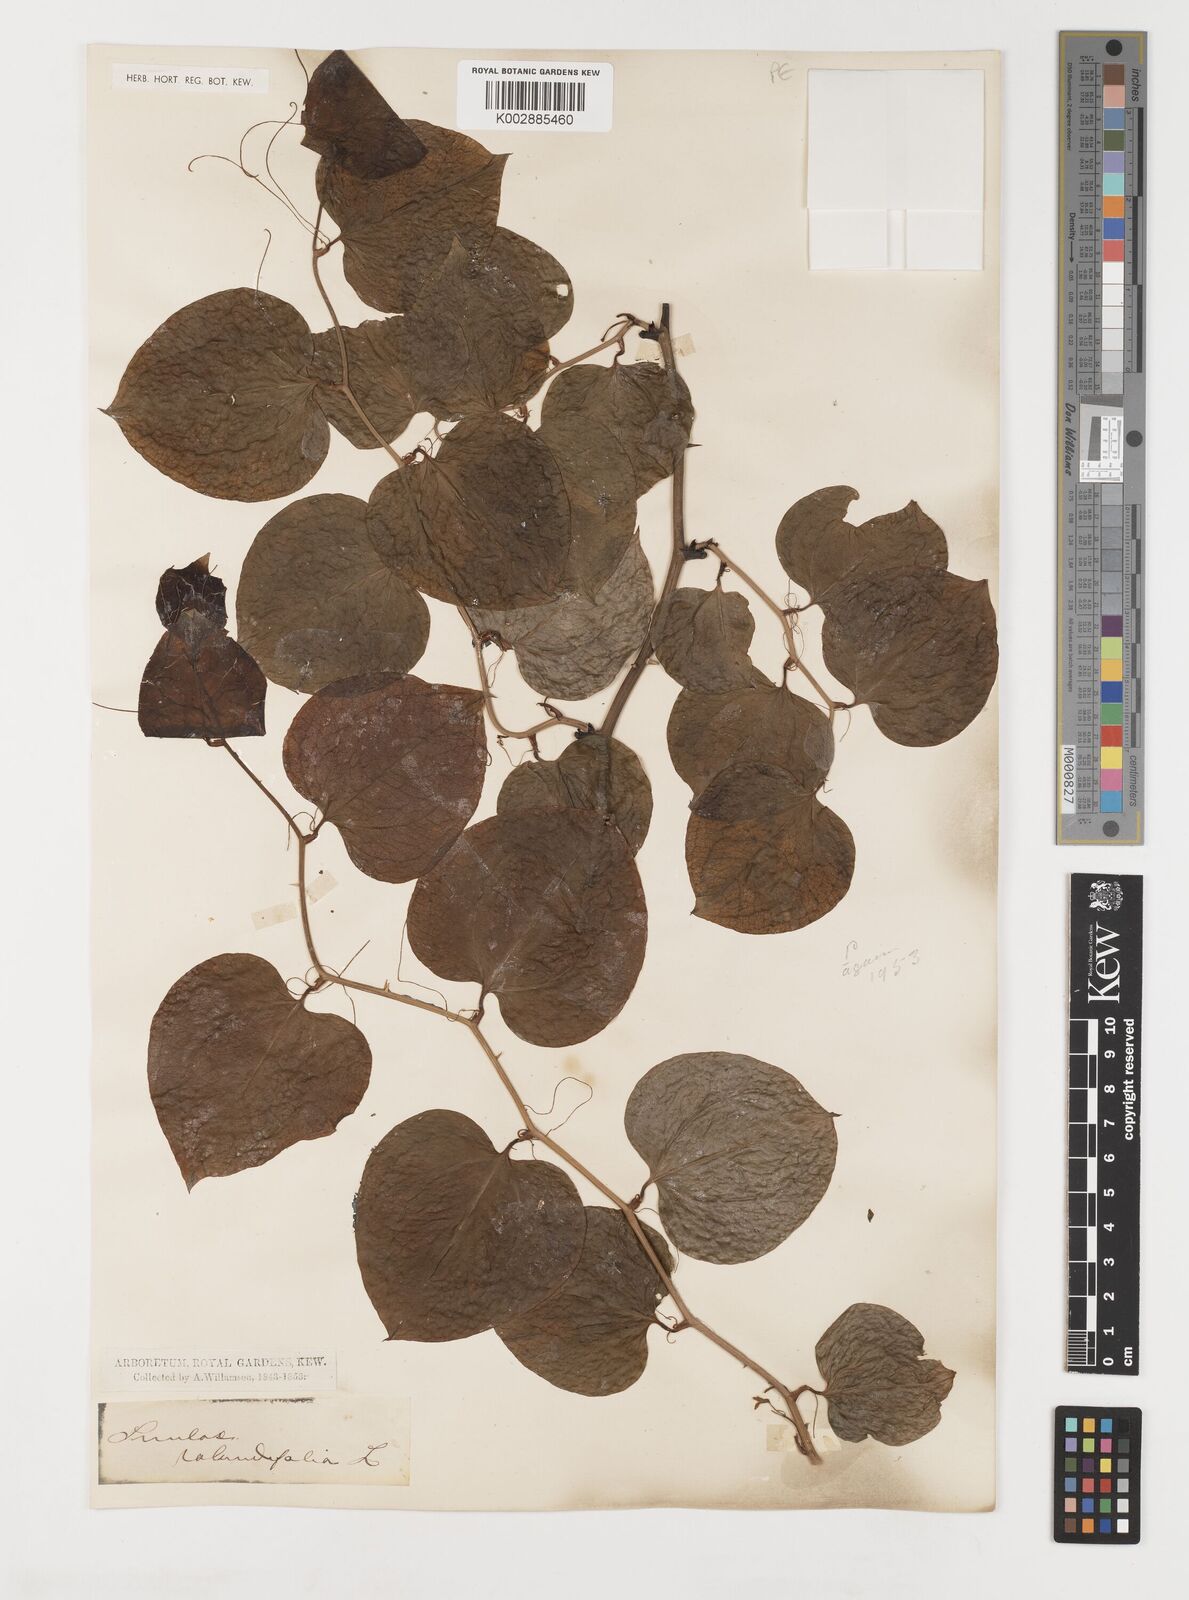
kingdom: Plantae
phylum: Tracheophyta
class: Liliopsida
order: Liliales
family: Smilacaceae
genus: Smilax
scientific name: Smilax rotundifolia
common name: Bullbriar
